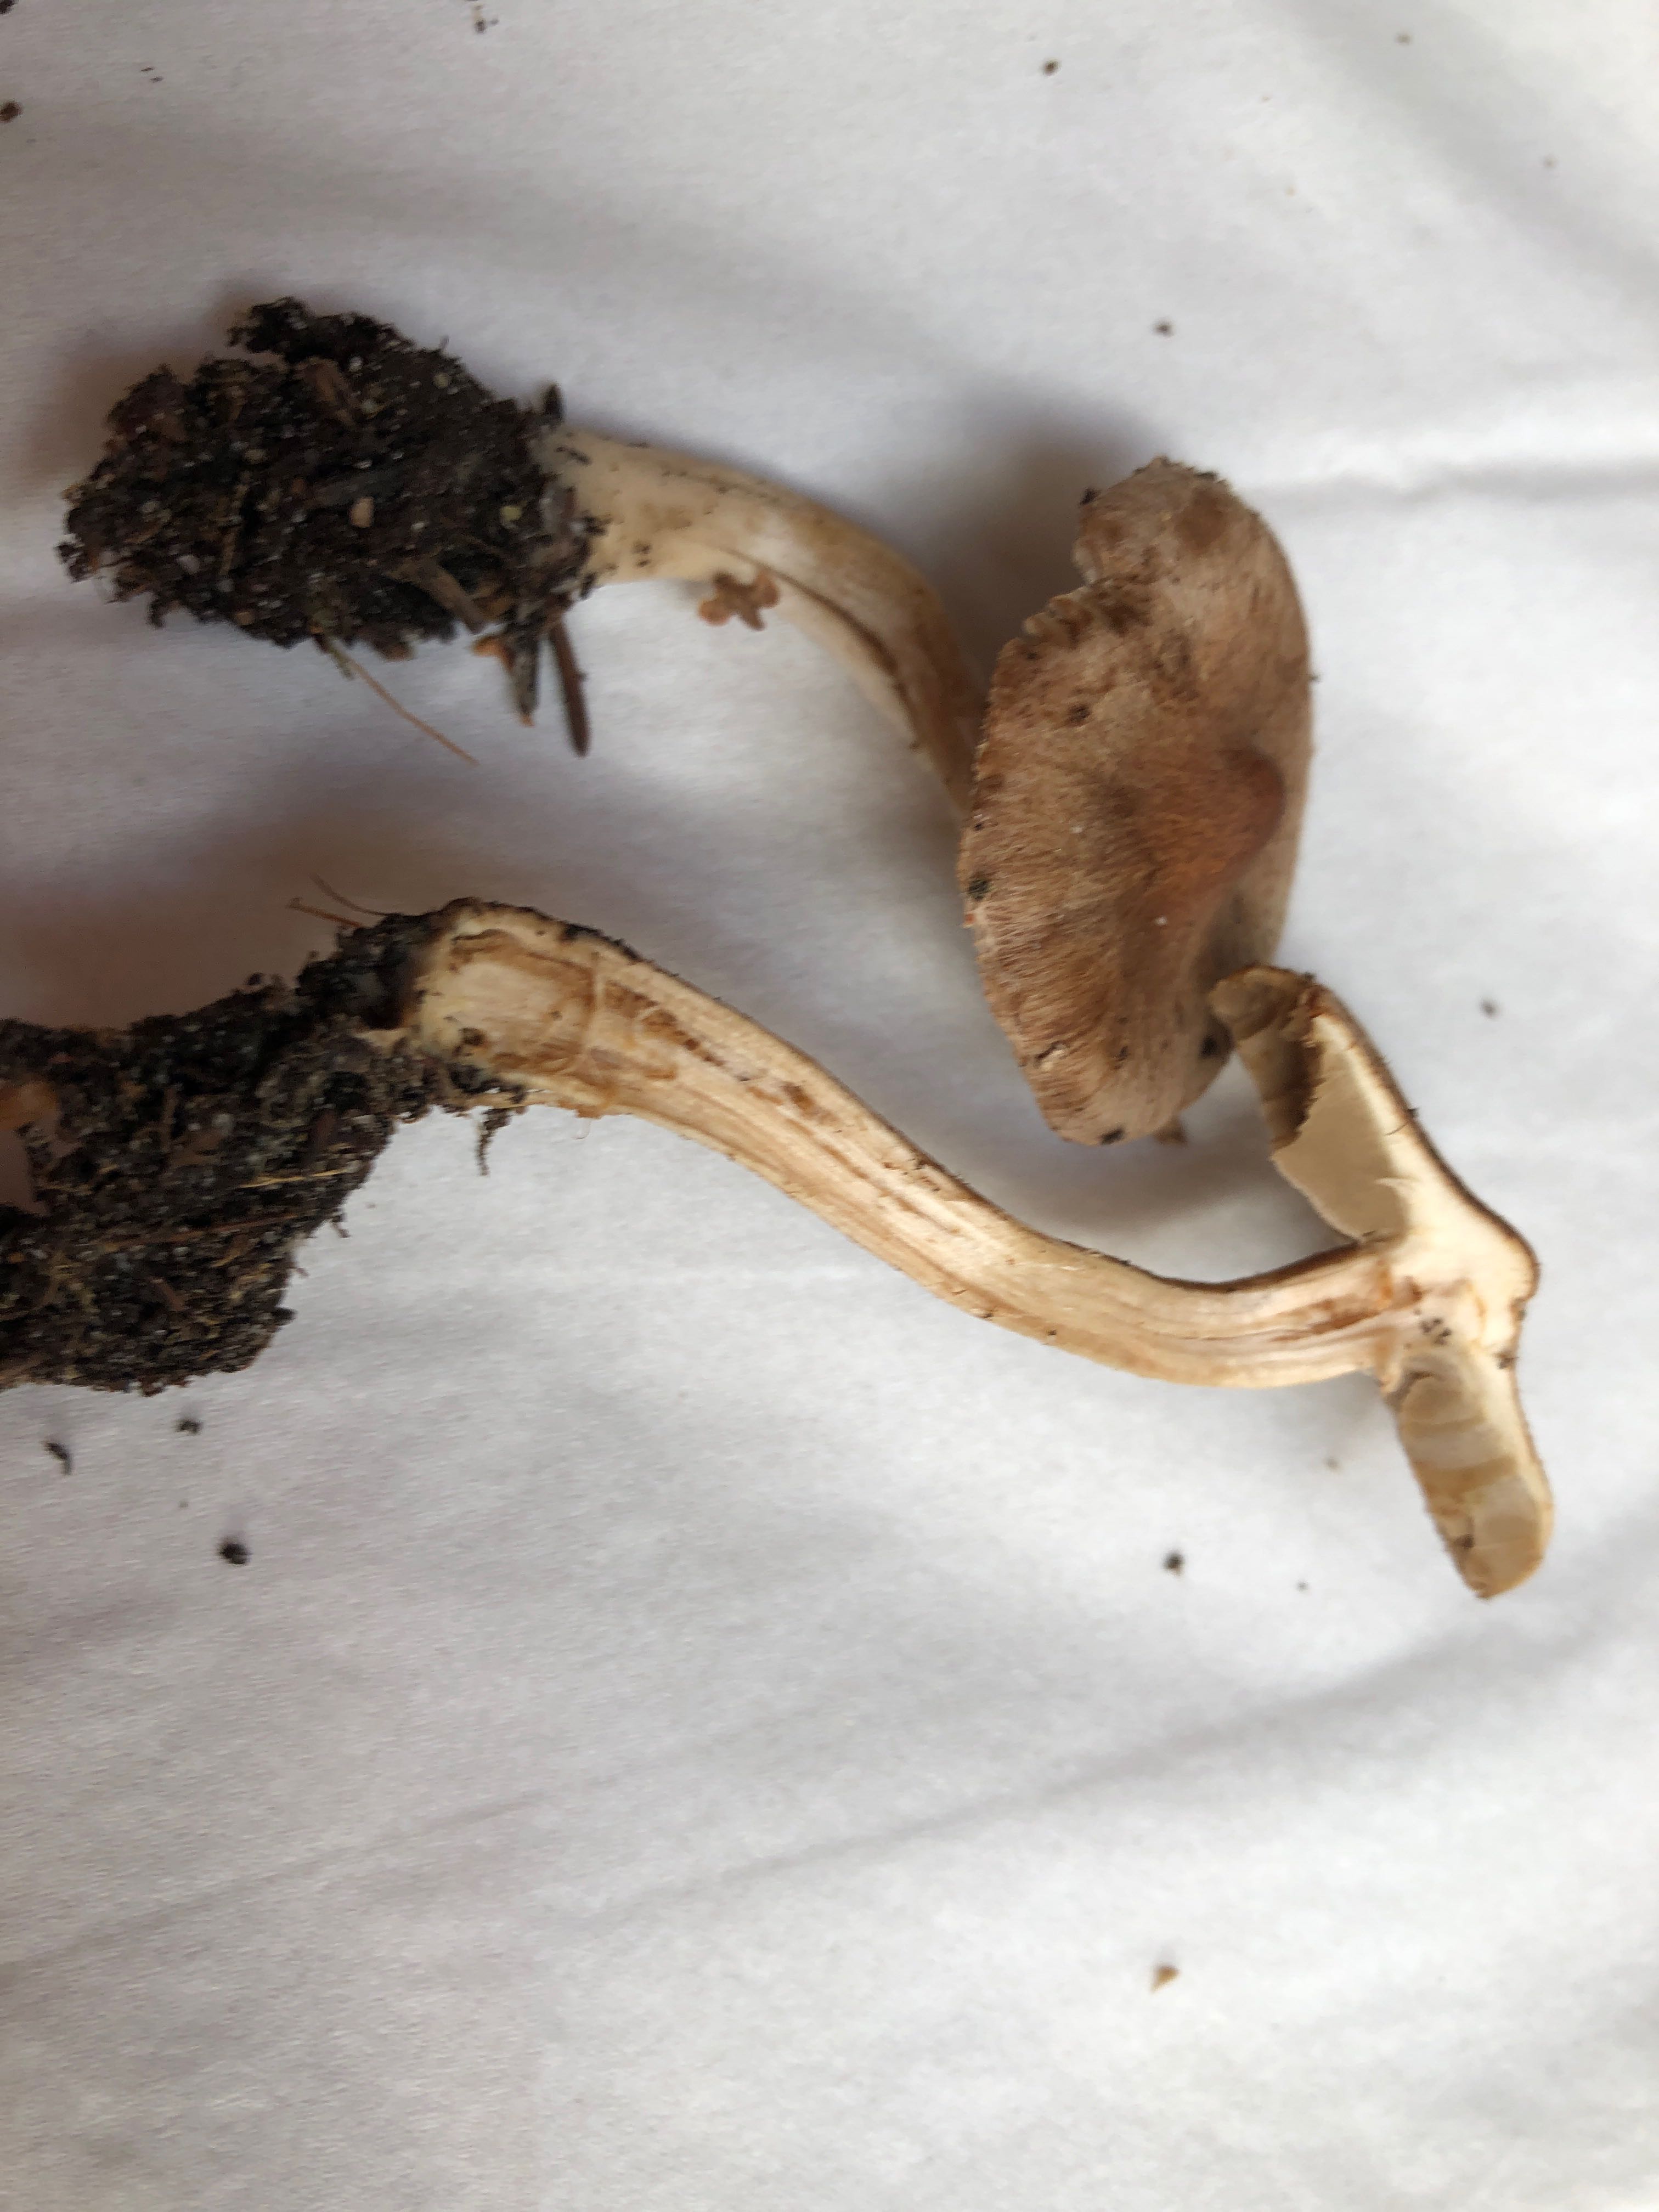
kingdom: Fungi
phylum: Basidiomycota
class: Agaricomycetes
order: Agaricales
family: Inocybaceae
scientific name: Inocybaceae
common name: trævlhatfamilien
